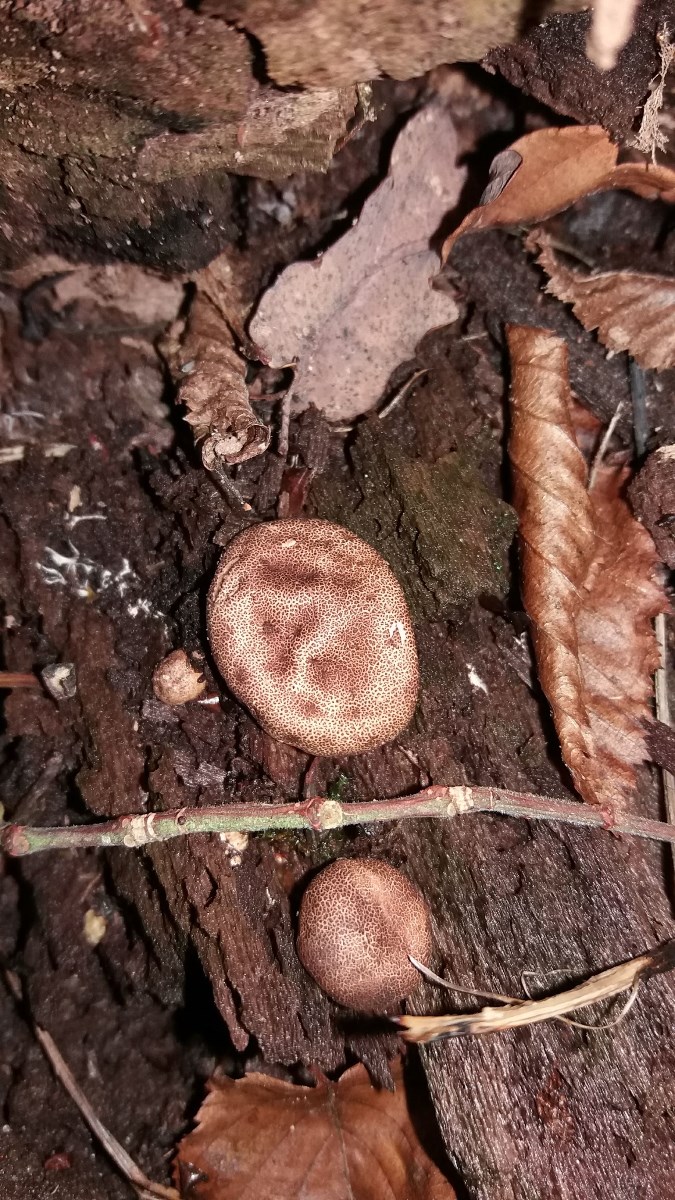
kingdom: Fungi
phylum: Basidiomycota
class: Agaricomycetes
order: Boletales
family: Sclerodermataceae
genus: Scleroderma
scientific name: Scleroderma areolatum
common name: plettet bruskbold
